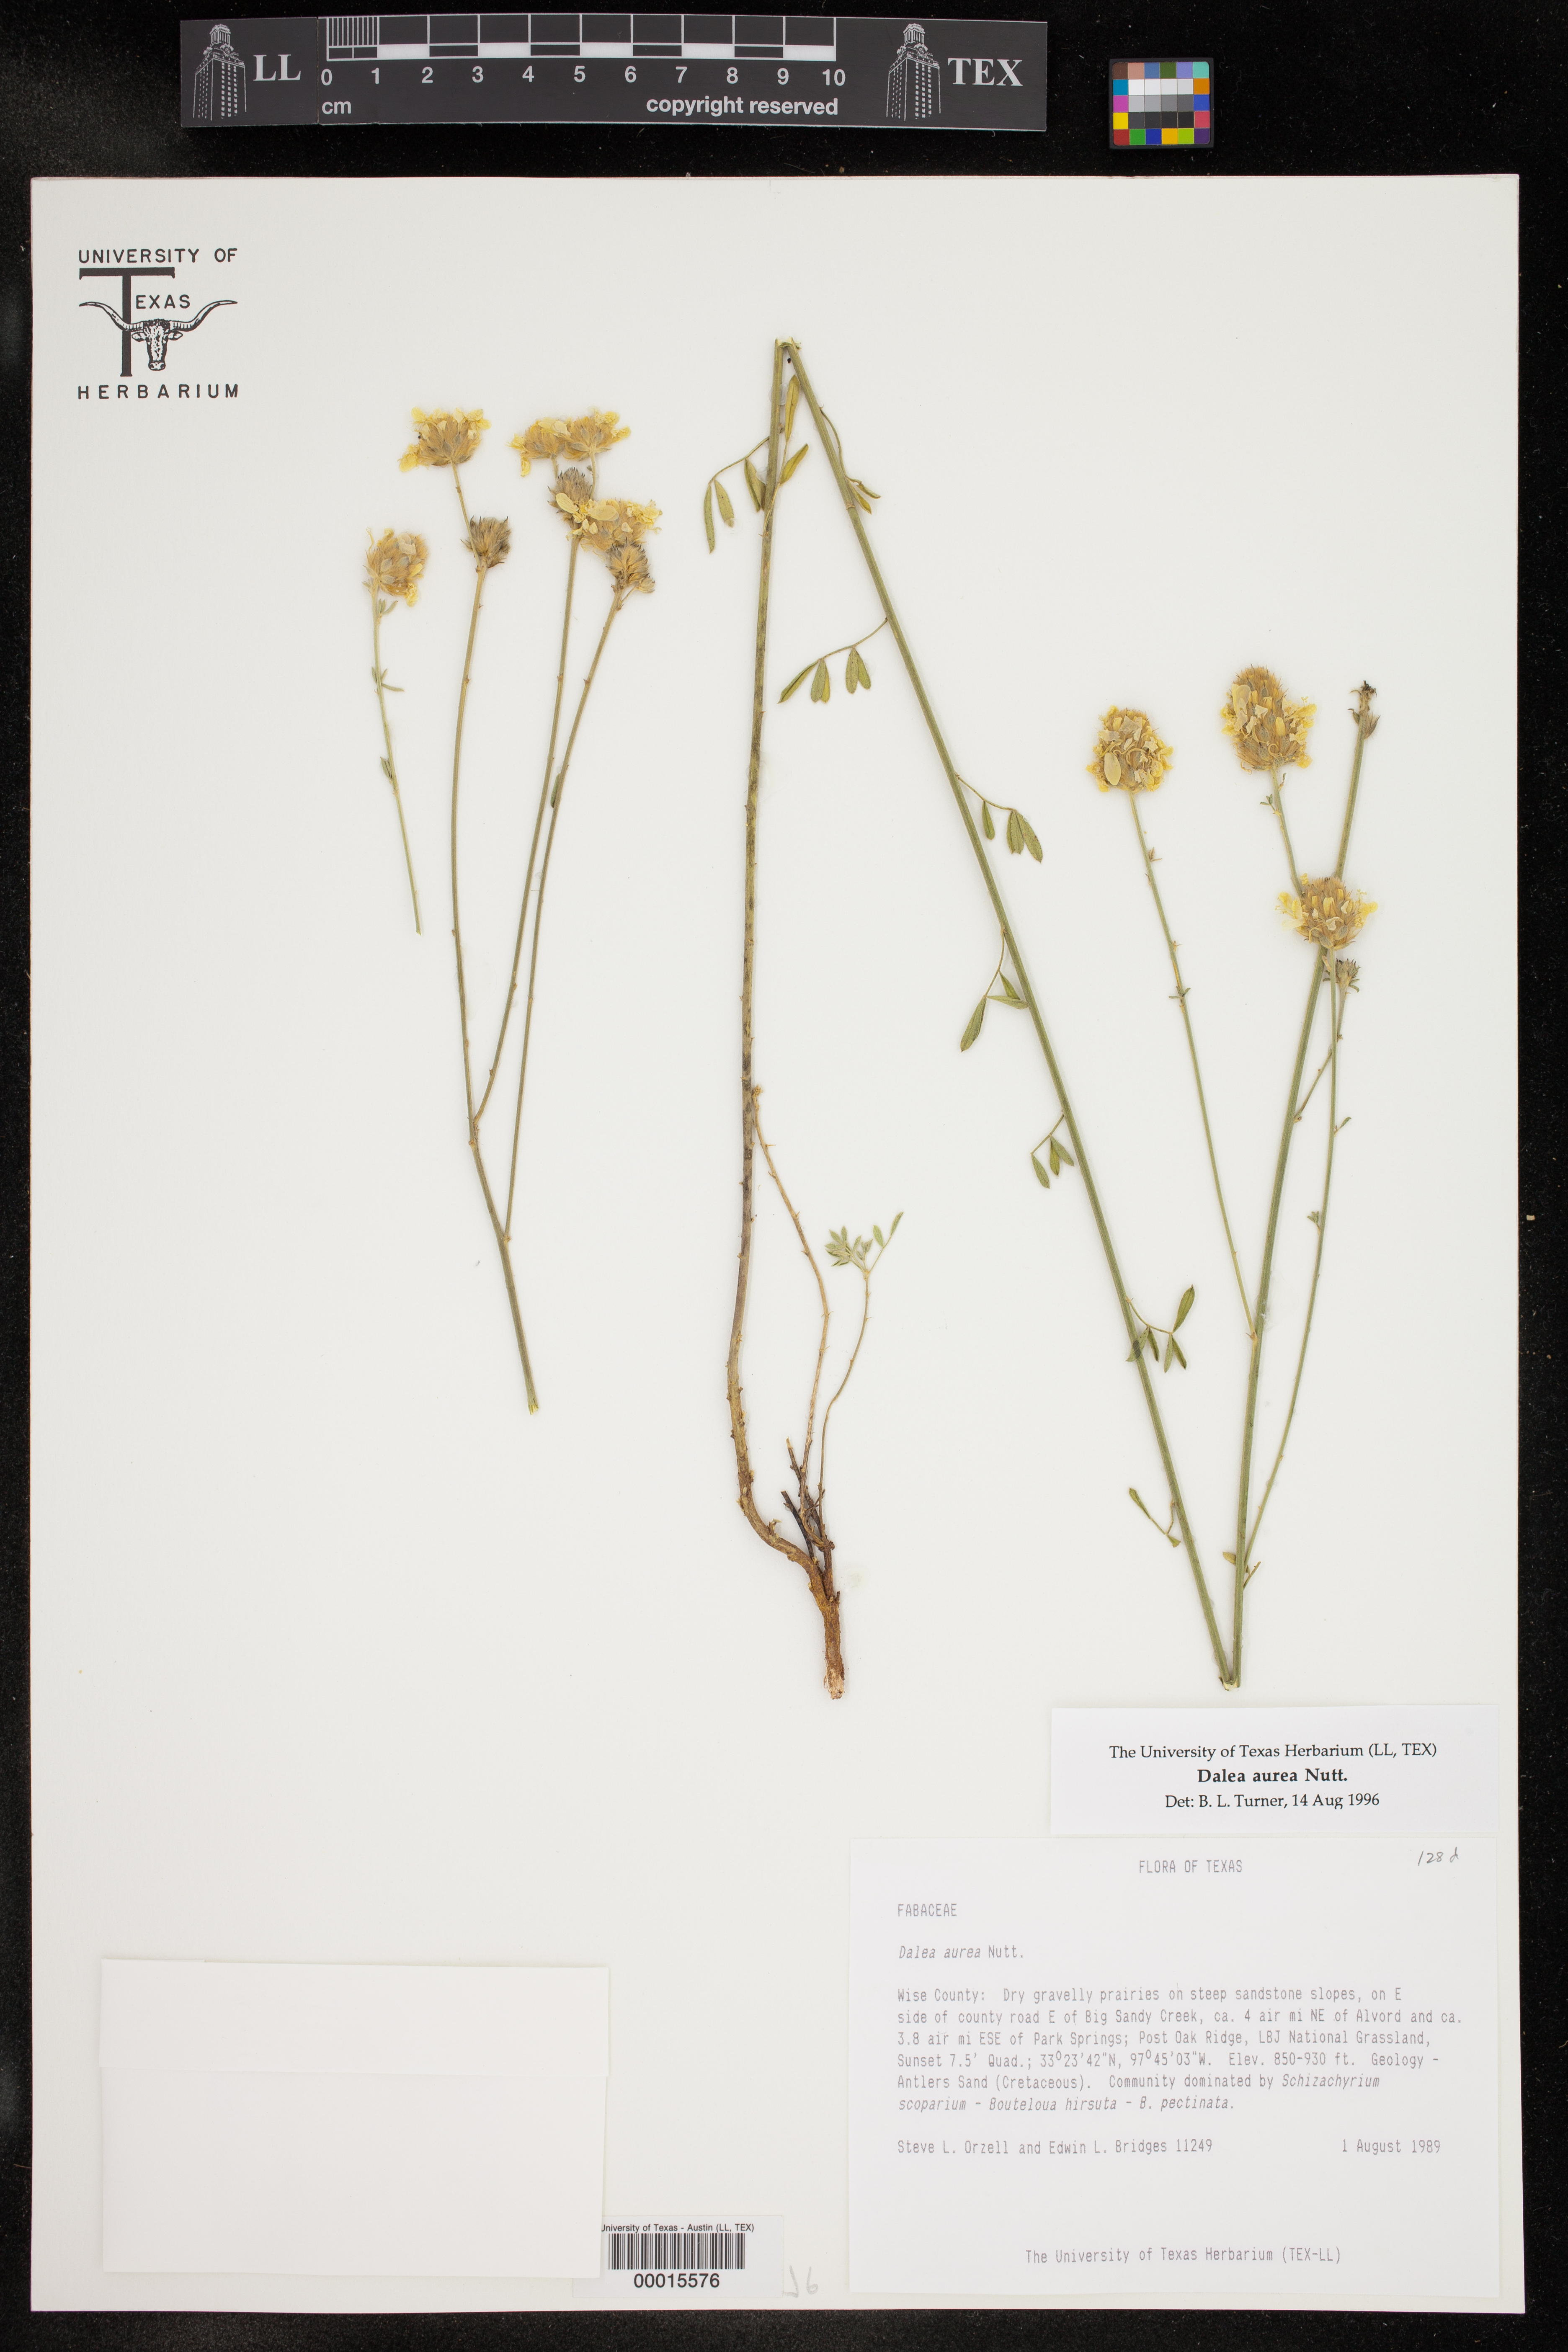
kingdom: Plantae
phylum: Tracheophyta
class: Magnoliopsida
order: Fabales
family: Fabaceae
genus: Dalea
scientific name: Dalea aurea
